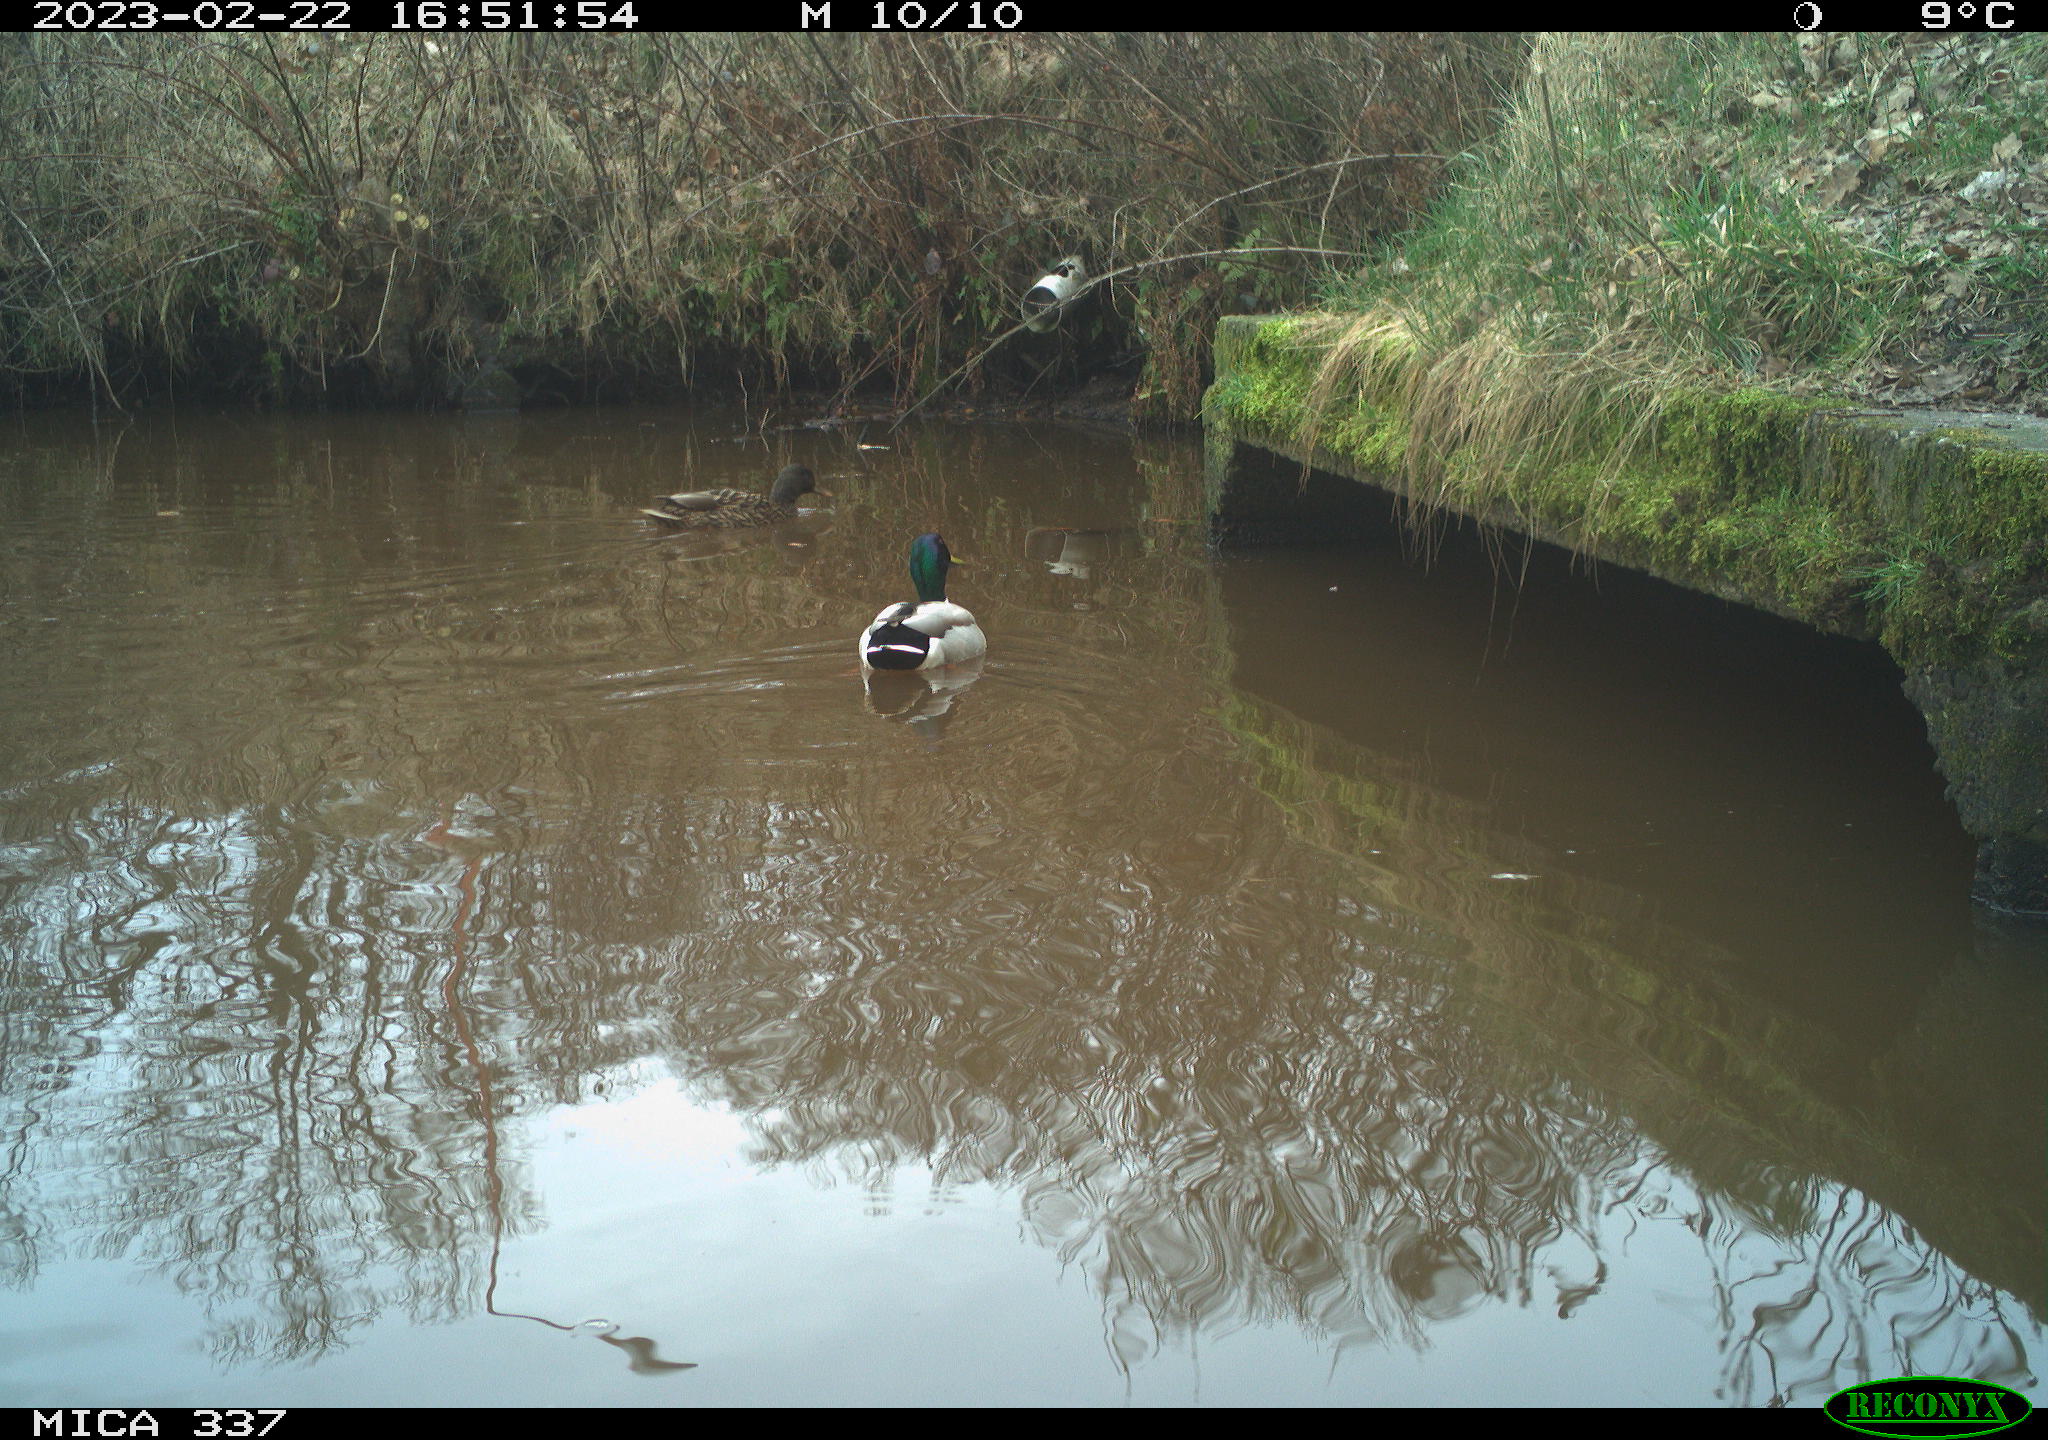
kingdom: Animalia
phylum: Chordata
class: Aves
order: Anseriformes
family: Anatidae
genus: Anas
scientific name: Anas
